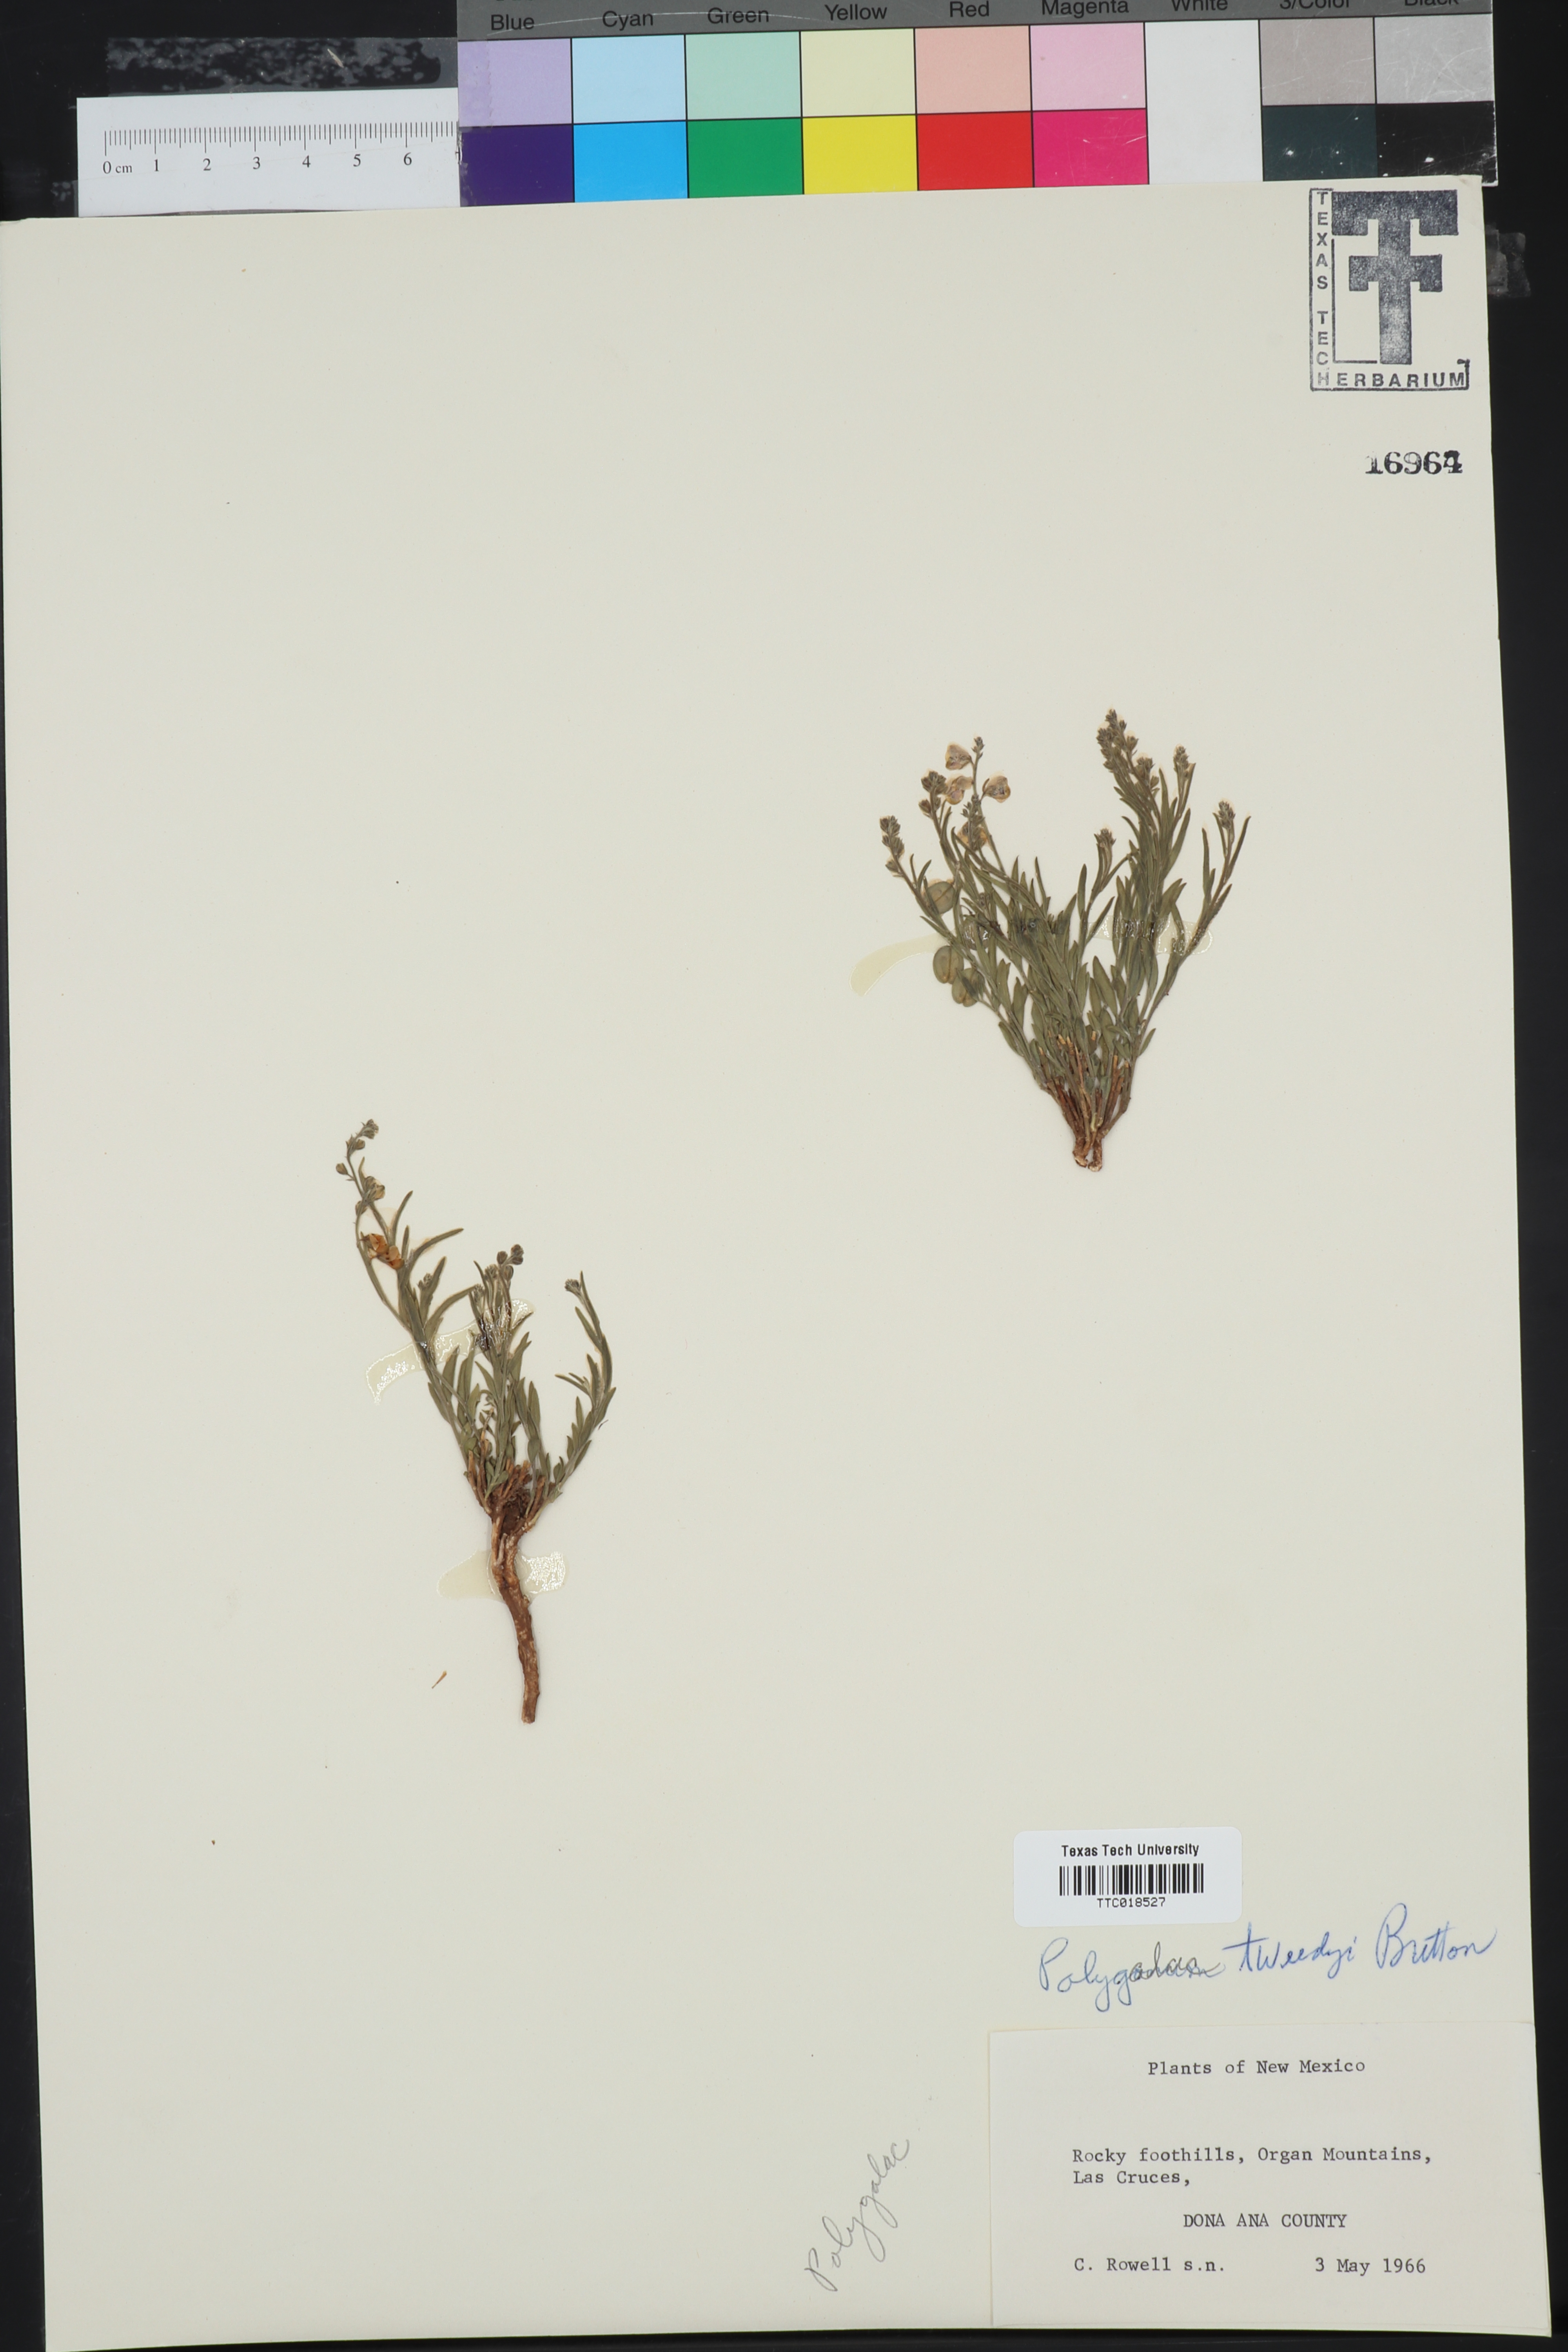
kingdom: Plantae
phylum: Tracheophyta
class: Magnoliopsida
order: Fabales
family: Polygalaceae
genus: Rhinotropis
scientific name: Rhinotropis lindheimeri
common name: Shrubby milkwort
